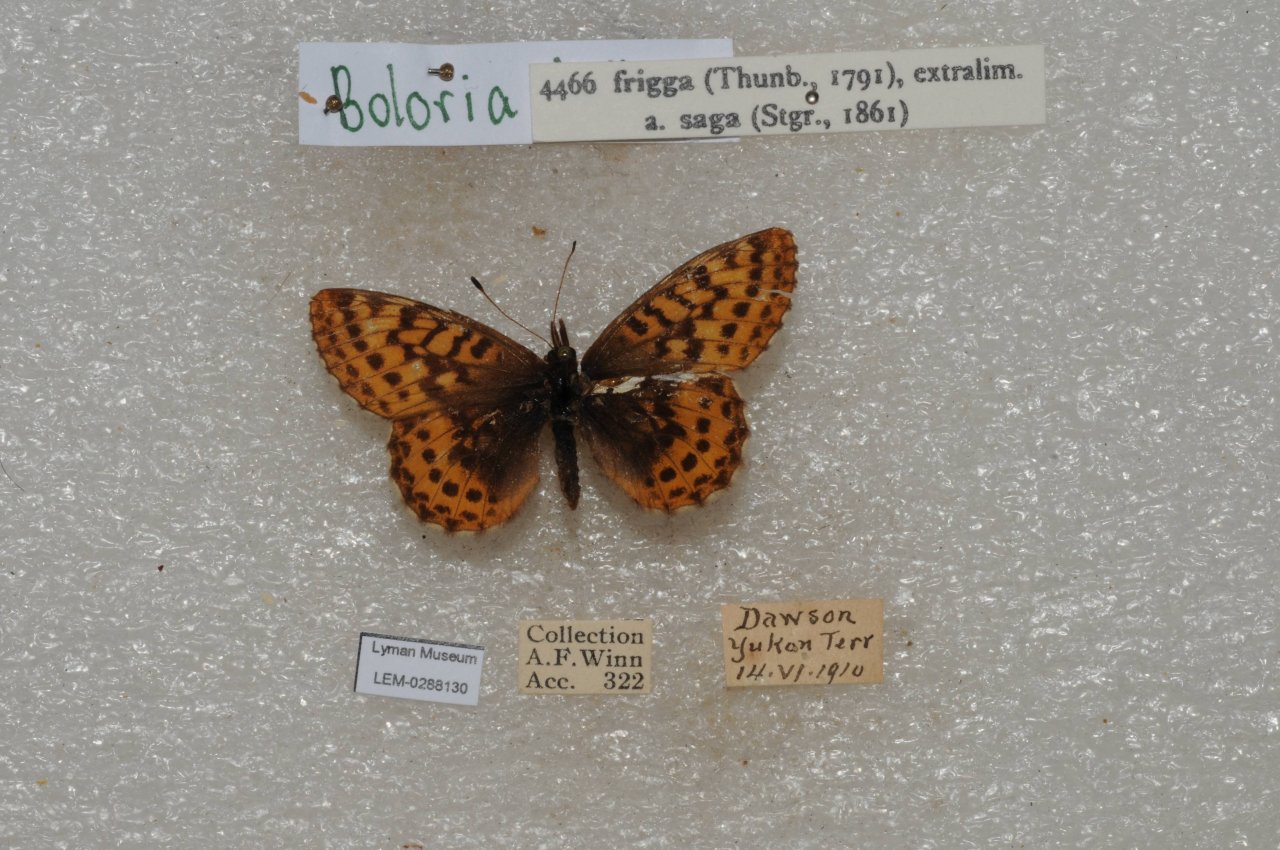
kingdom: Animalia
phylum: Arthropoda
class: Insecta
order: Lepidoptera
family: Nymphalidae
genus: Boloria
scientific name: Boloria frigga
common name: Frigga Fritillary
